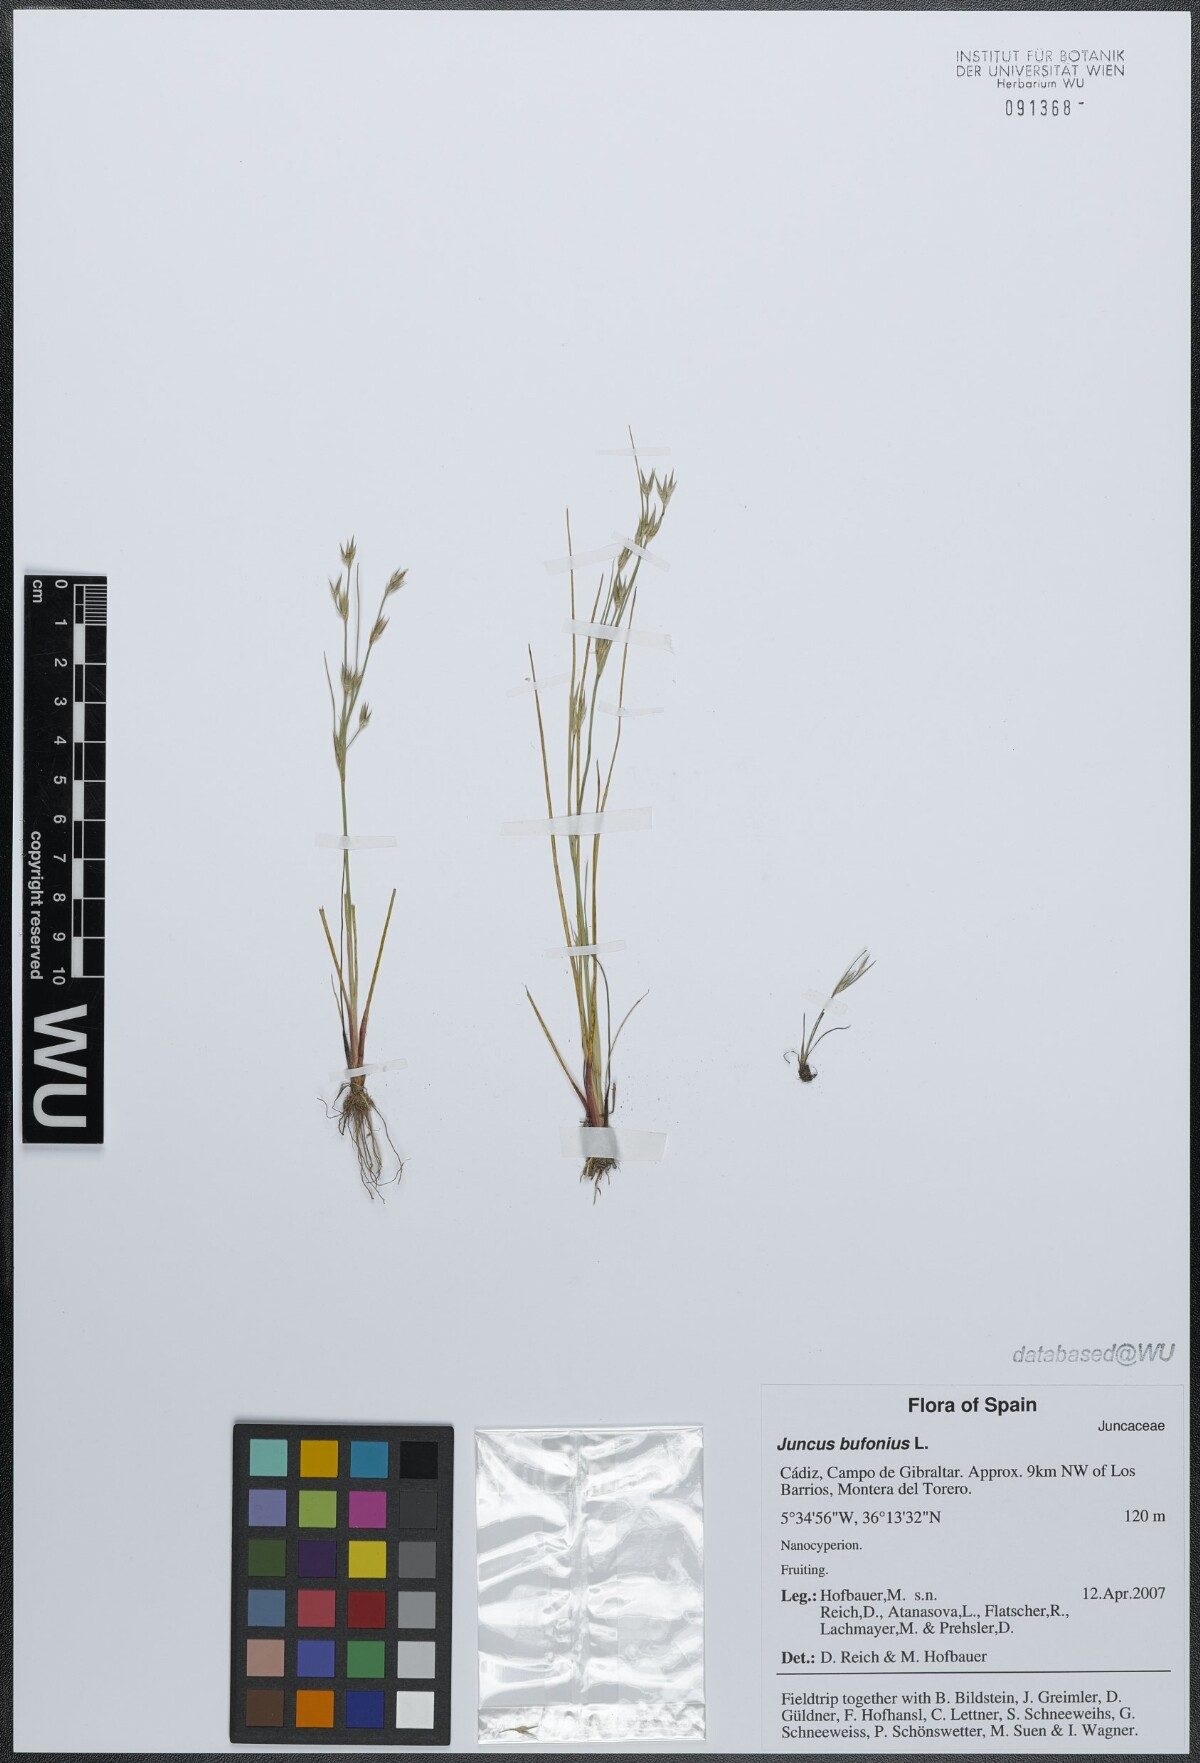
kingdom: Plantae
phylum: Tracheophyta
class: Liliopsida
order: Poales
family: Juncaceae
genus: Juncus
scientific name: Juncus bufonius
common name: Toad rush
